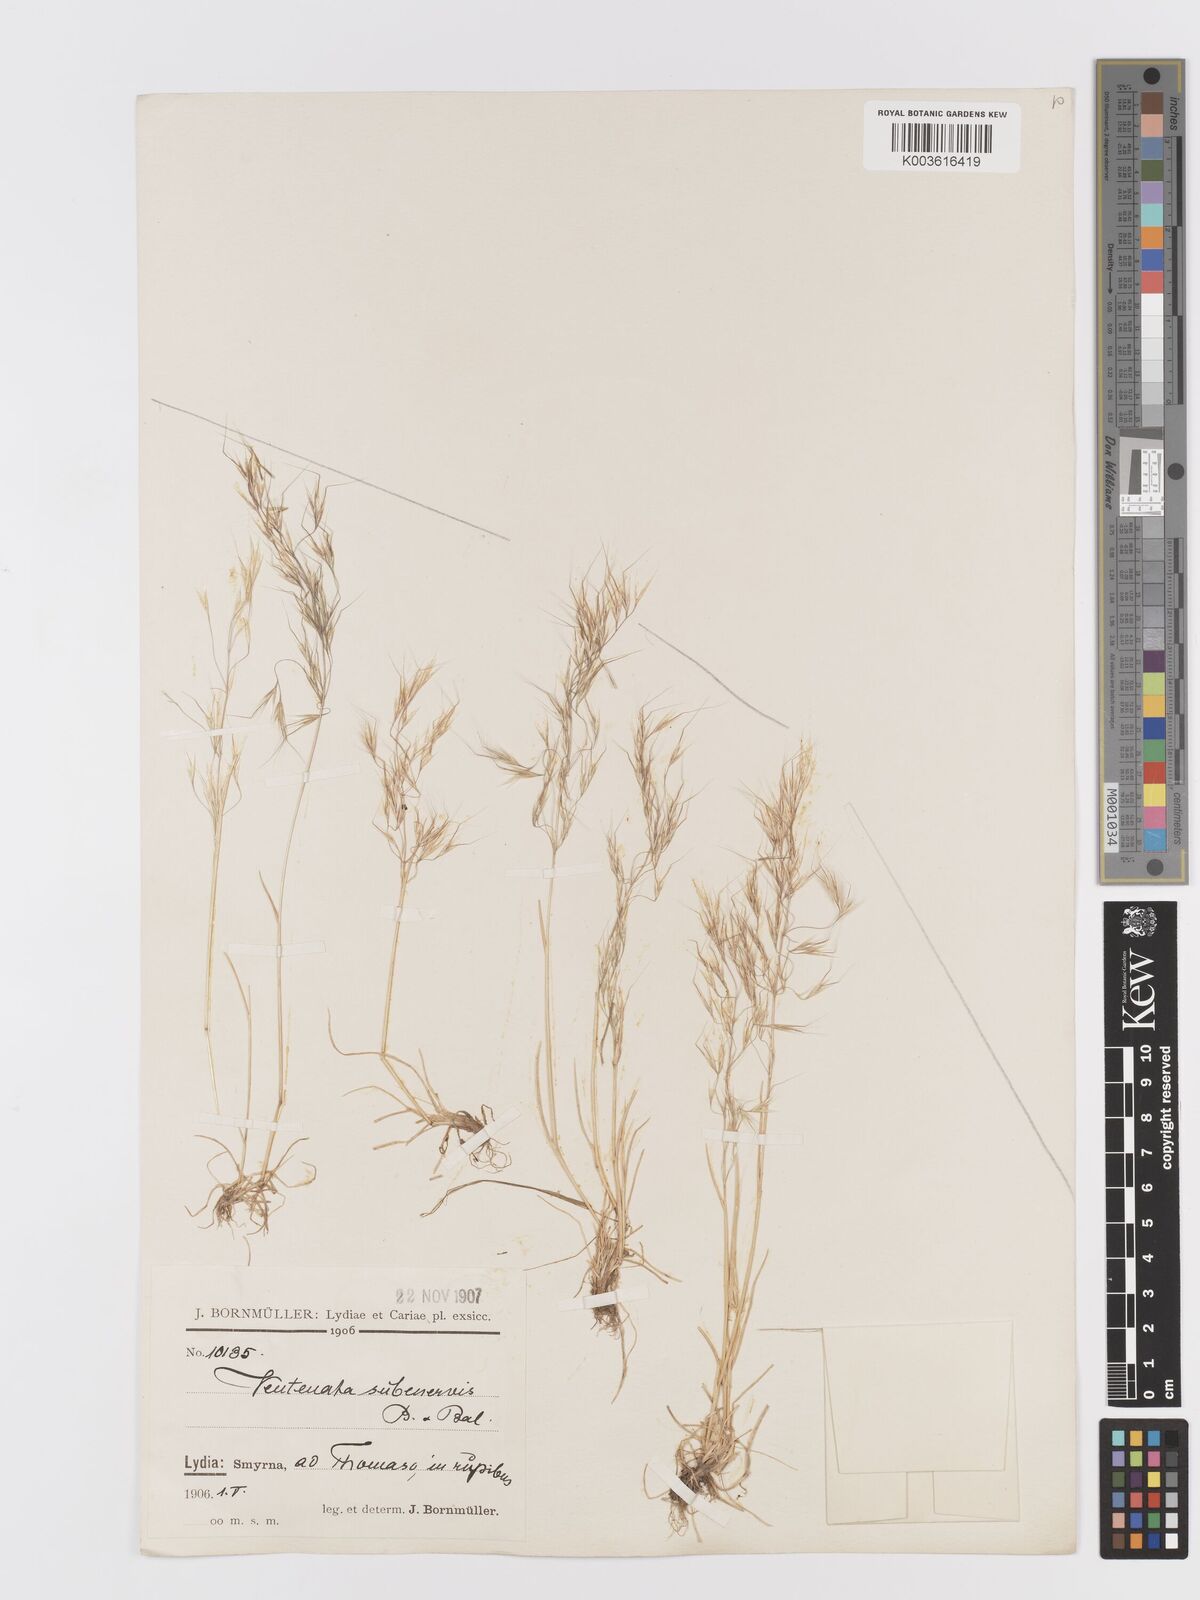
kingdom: Plantae
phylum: Tracheophyta
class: Liliopsida
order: Poales
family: Poaceae
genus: Ventenata
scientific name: Ventenata subenervis
